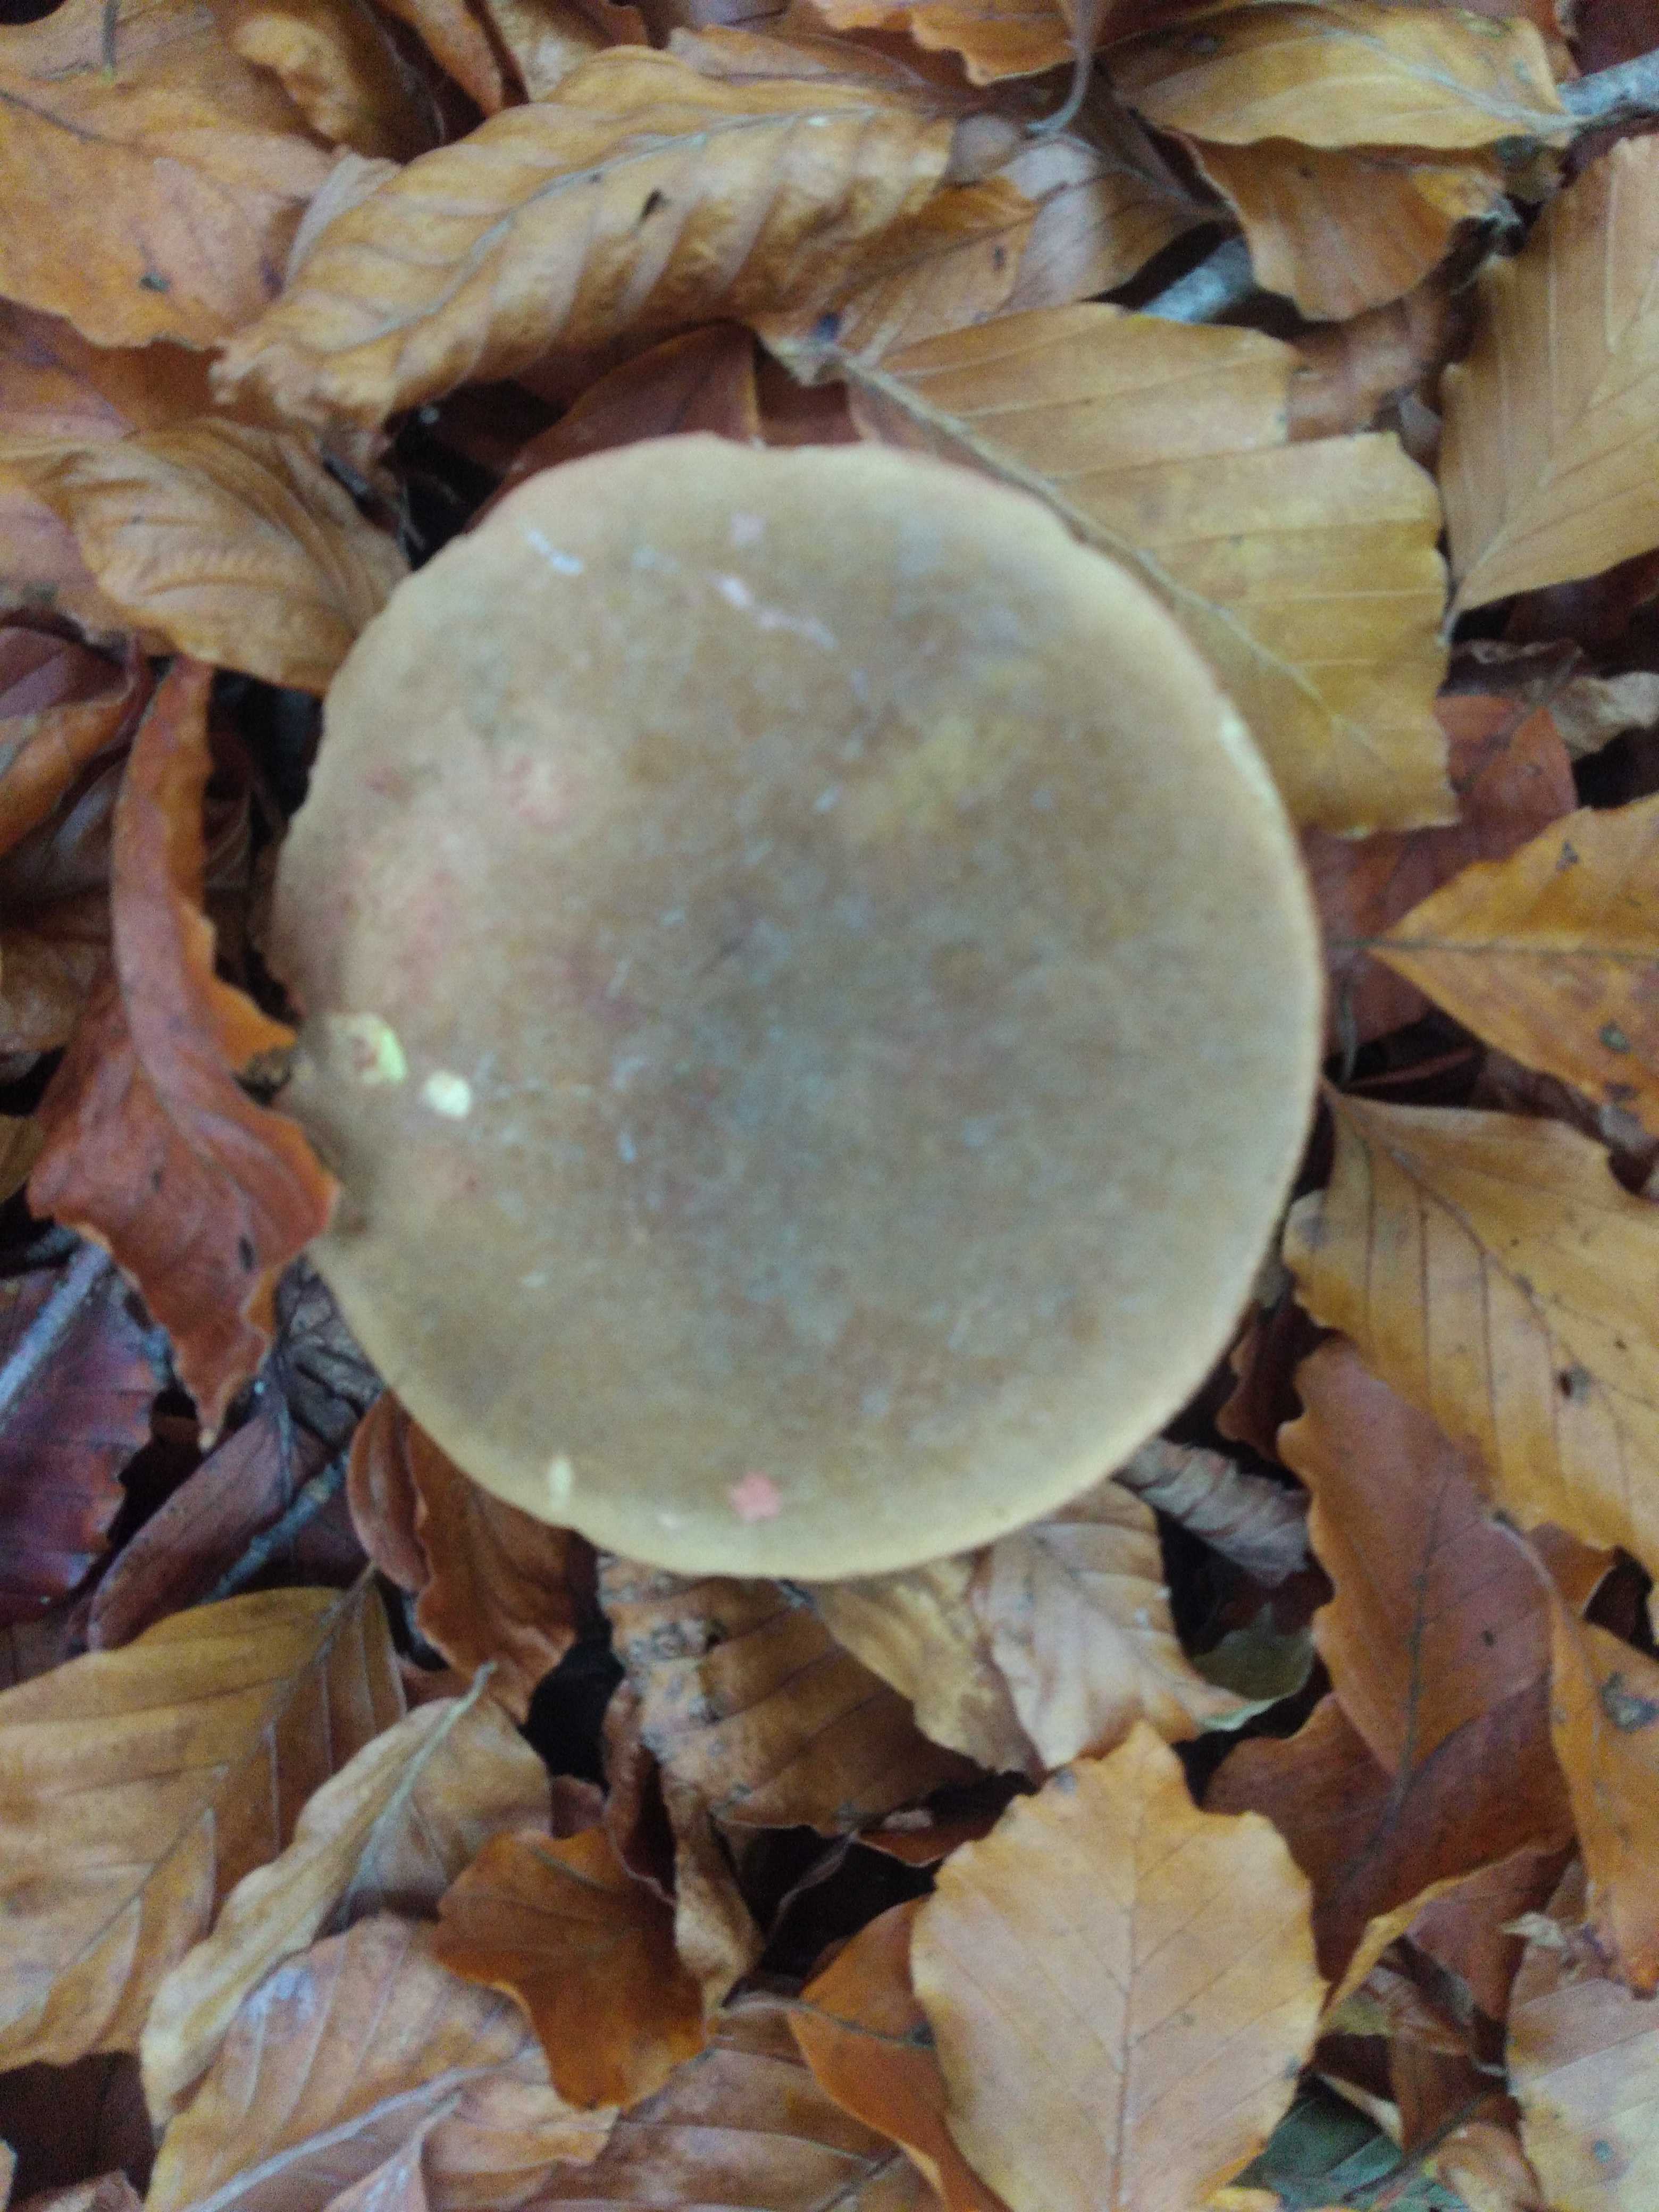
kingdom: Fungi
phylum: Basidiomycota
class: Agaricomycetes
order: Boletales
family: Boletaceae
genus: Xerocomellus
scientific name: Xerocomellus pruinatus
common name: dugget rørhat
